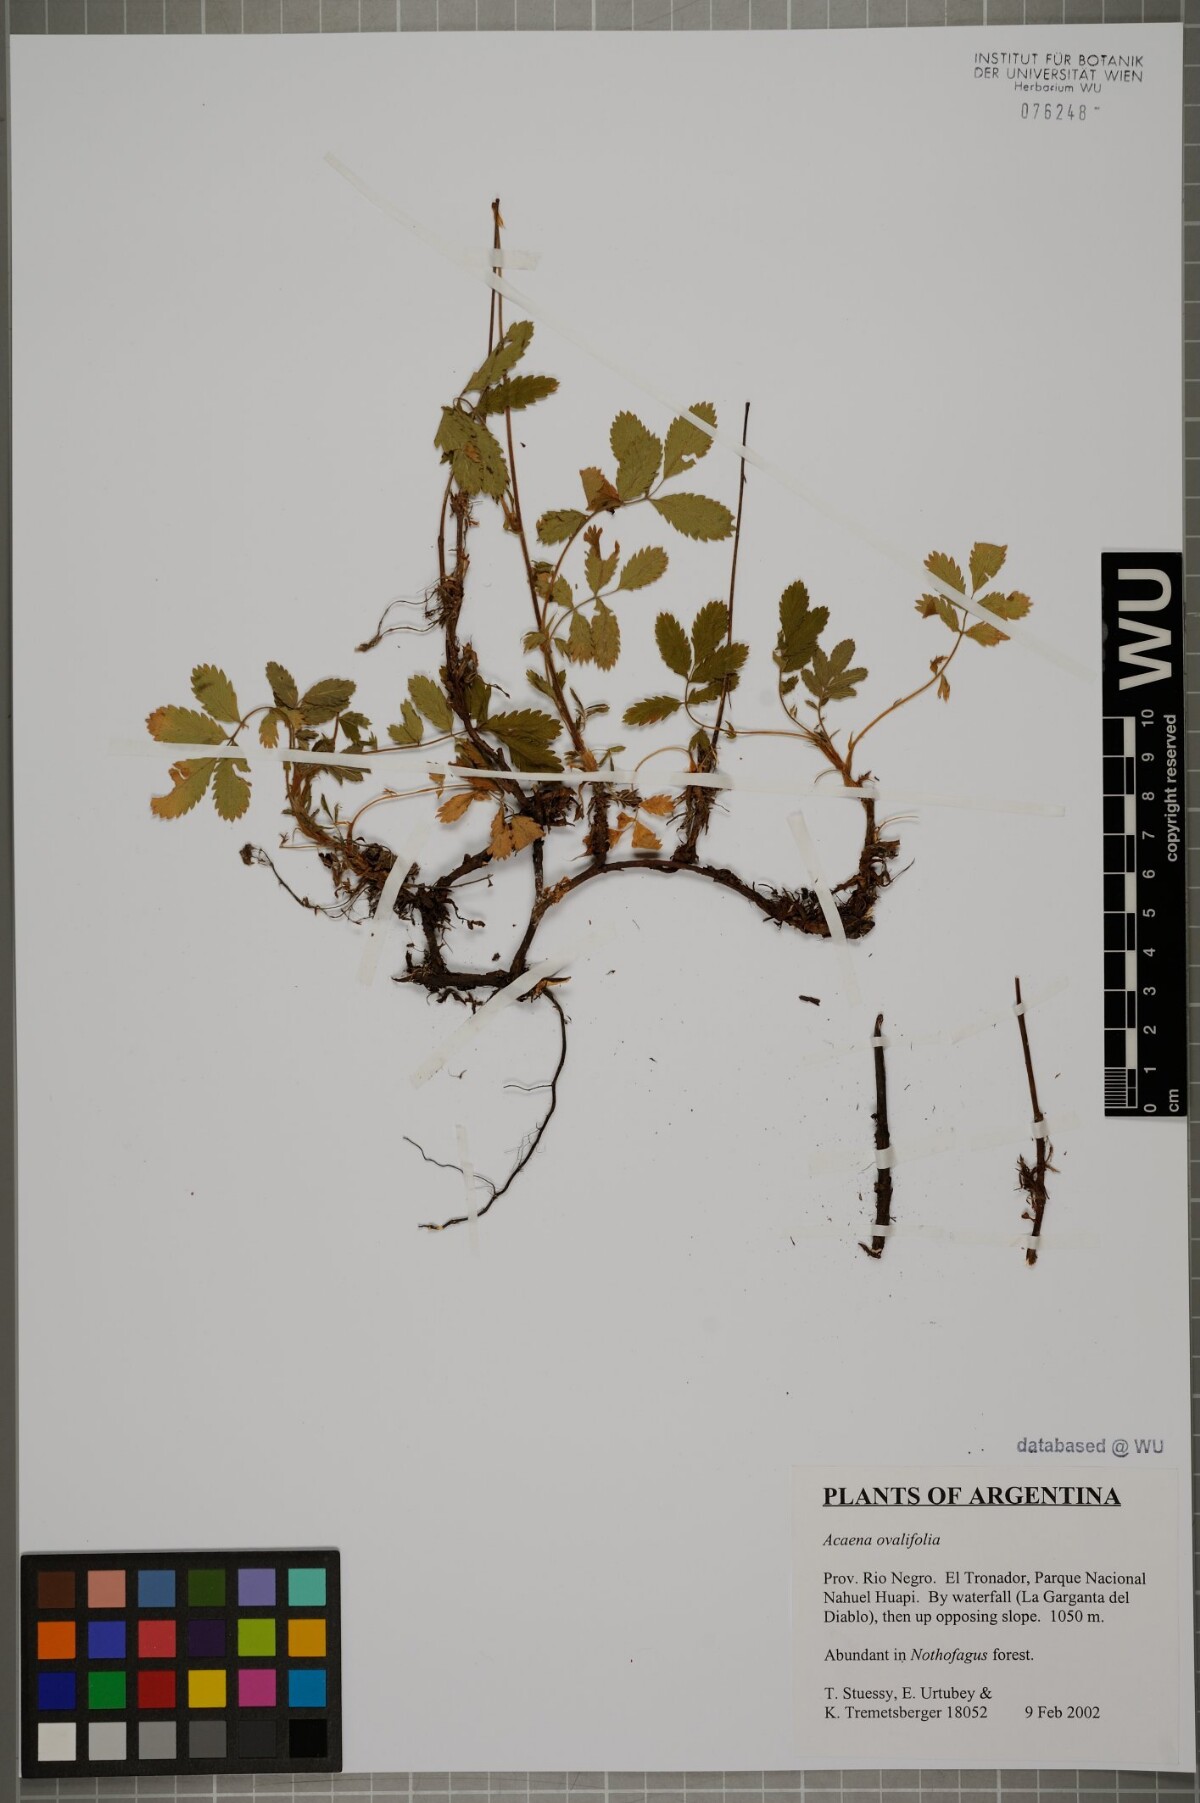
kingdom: Plantae
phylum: Tracheophyta
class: Magnoliopsida
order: Rosales
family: Rosaceae
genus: Acaena
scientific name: Acaena ovalifolia
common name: Two-spined acaena
